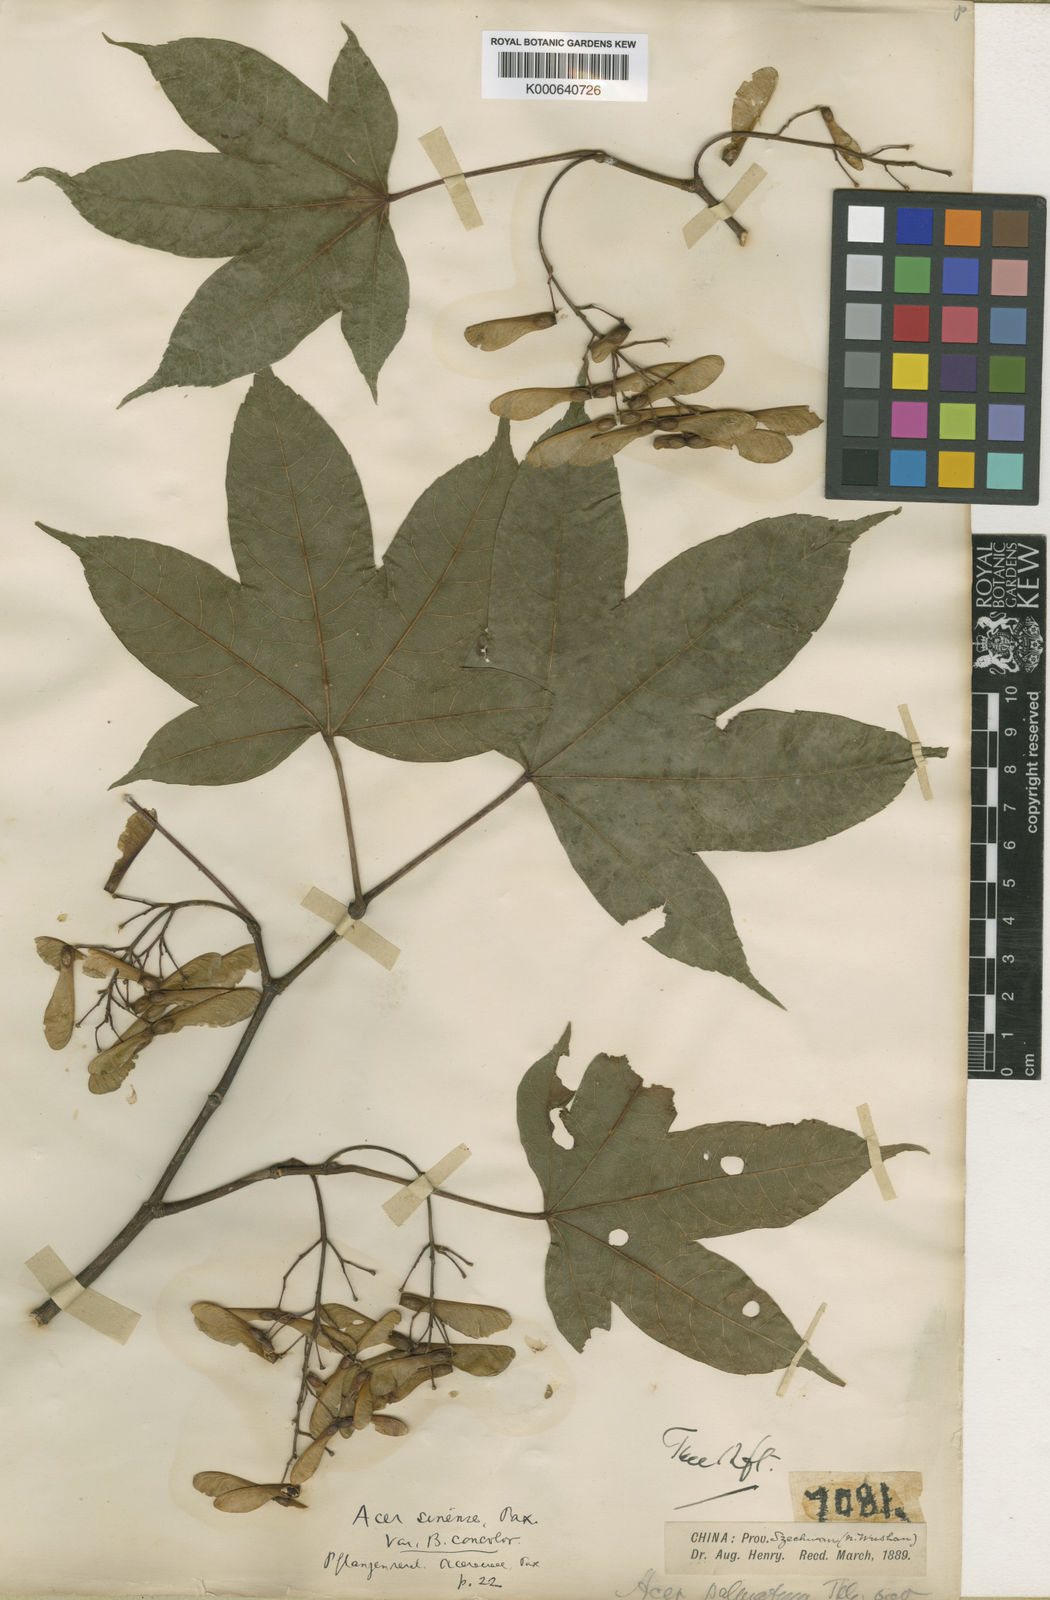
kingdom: Plantae
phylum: Tracheophyta
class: Magnoliopsida
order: Sapindales
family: Sapindaceae
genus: Acer
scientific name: Acer sinense
